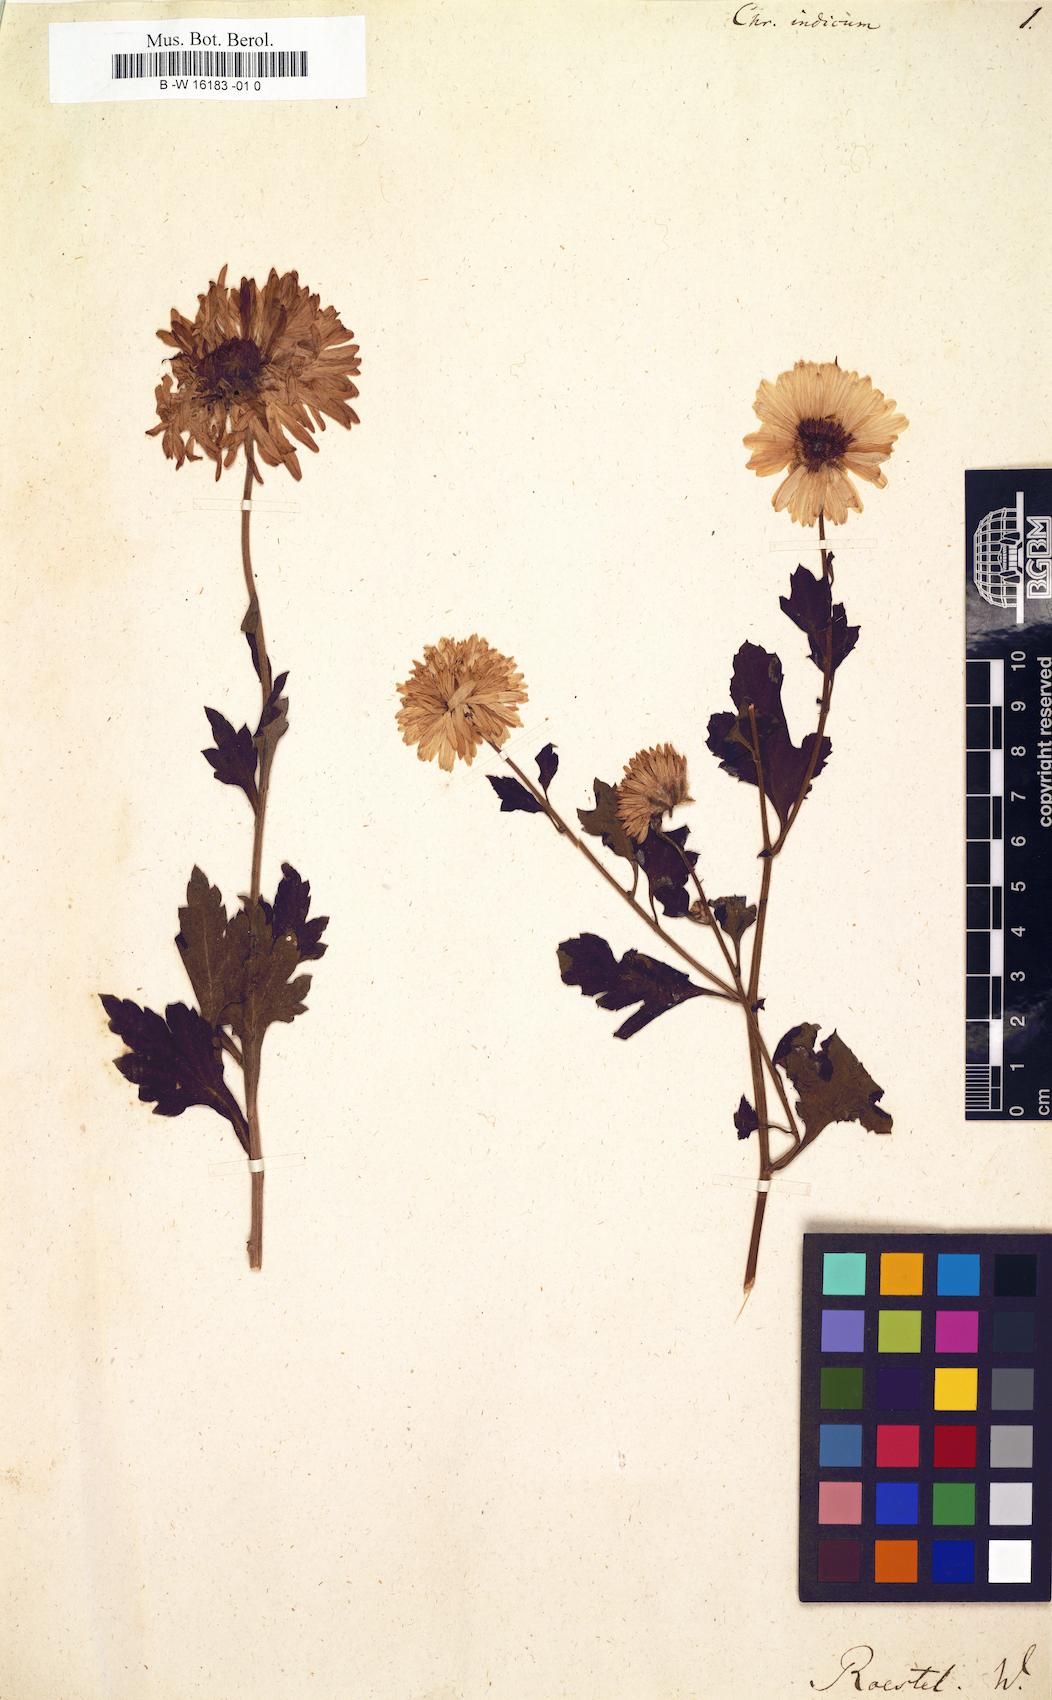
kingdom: Plantae
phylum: Tracheophyta
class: Magnoliopsida
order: Asterales
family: Asteraceae
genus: Chrysanthemum
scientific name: Chrysanthemum indicum
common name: Indian chrysanthemum
